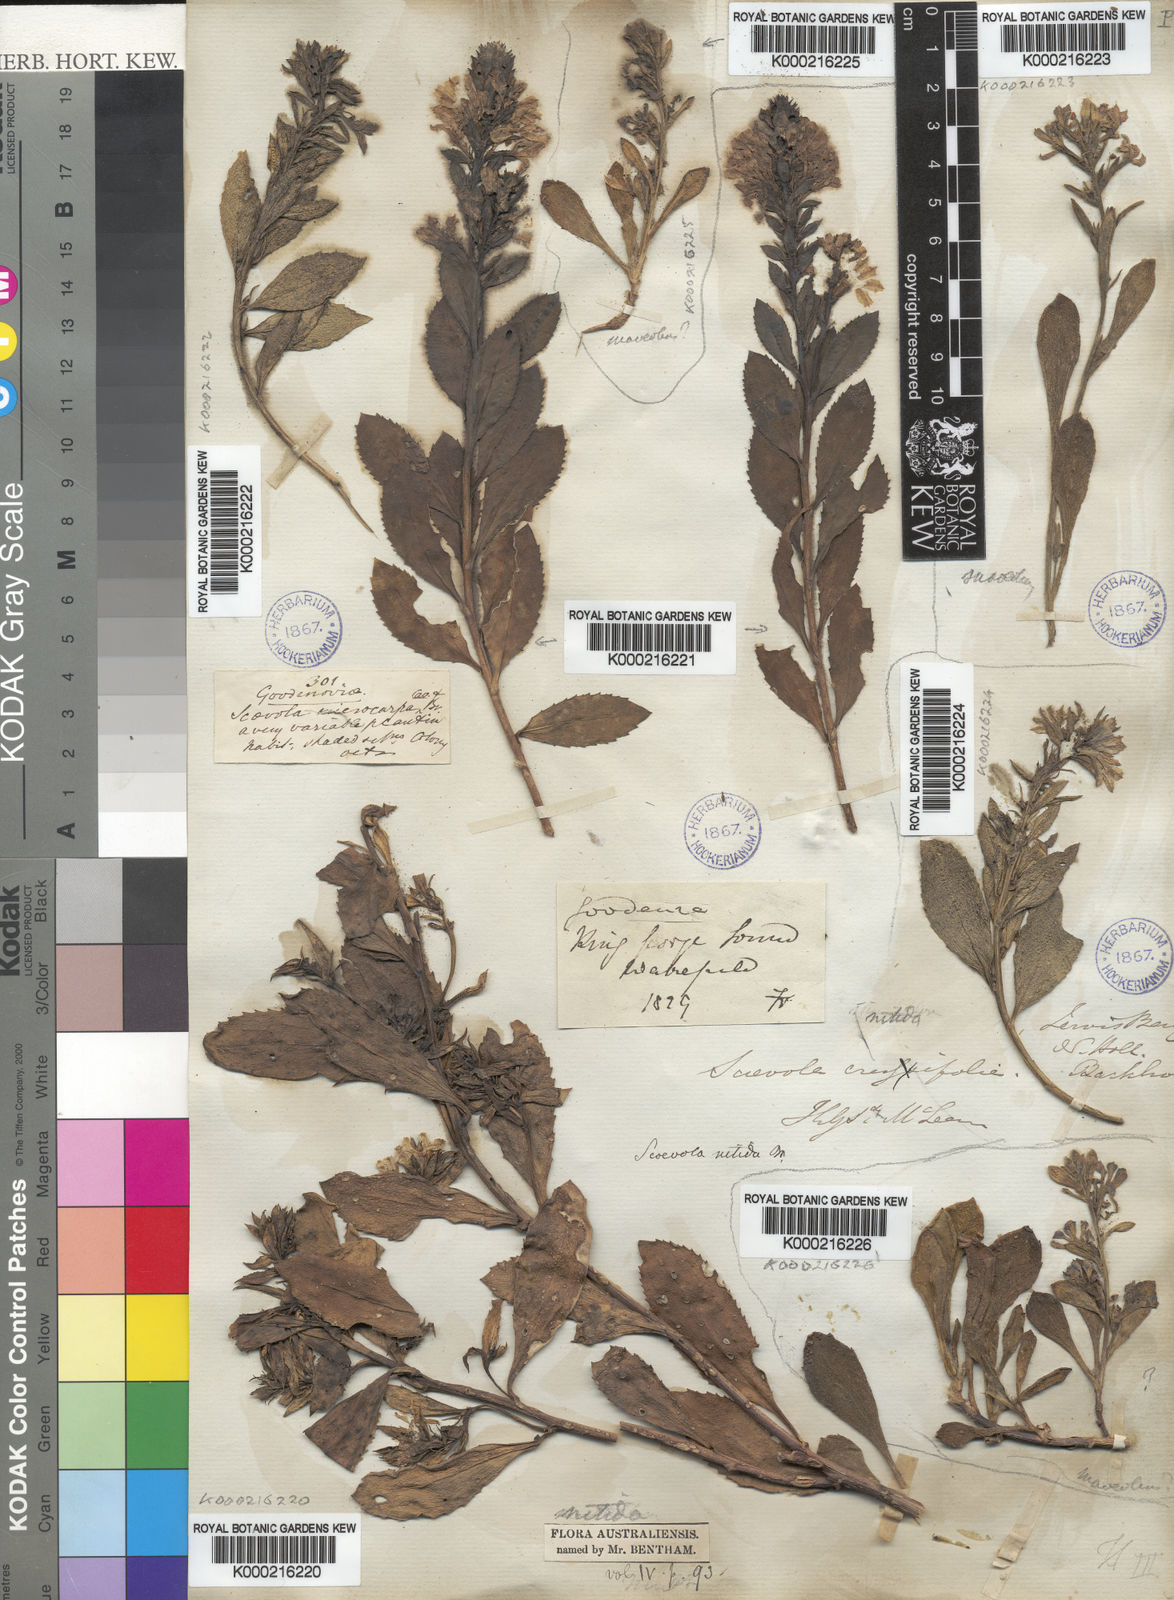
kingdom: Plantae
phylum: Tracheophyta
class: Magnoliopsida
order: Asterales
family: Goodeniaceae
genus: Goodenia
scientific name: Goodenia
